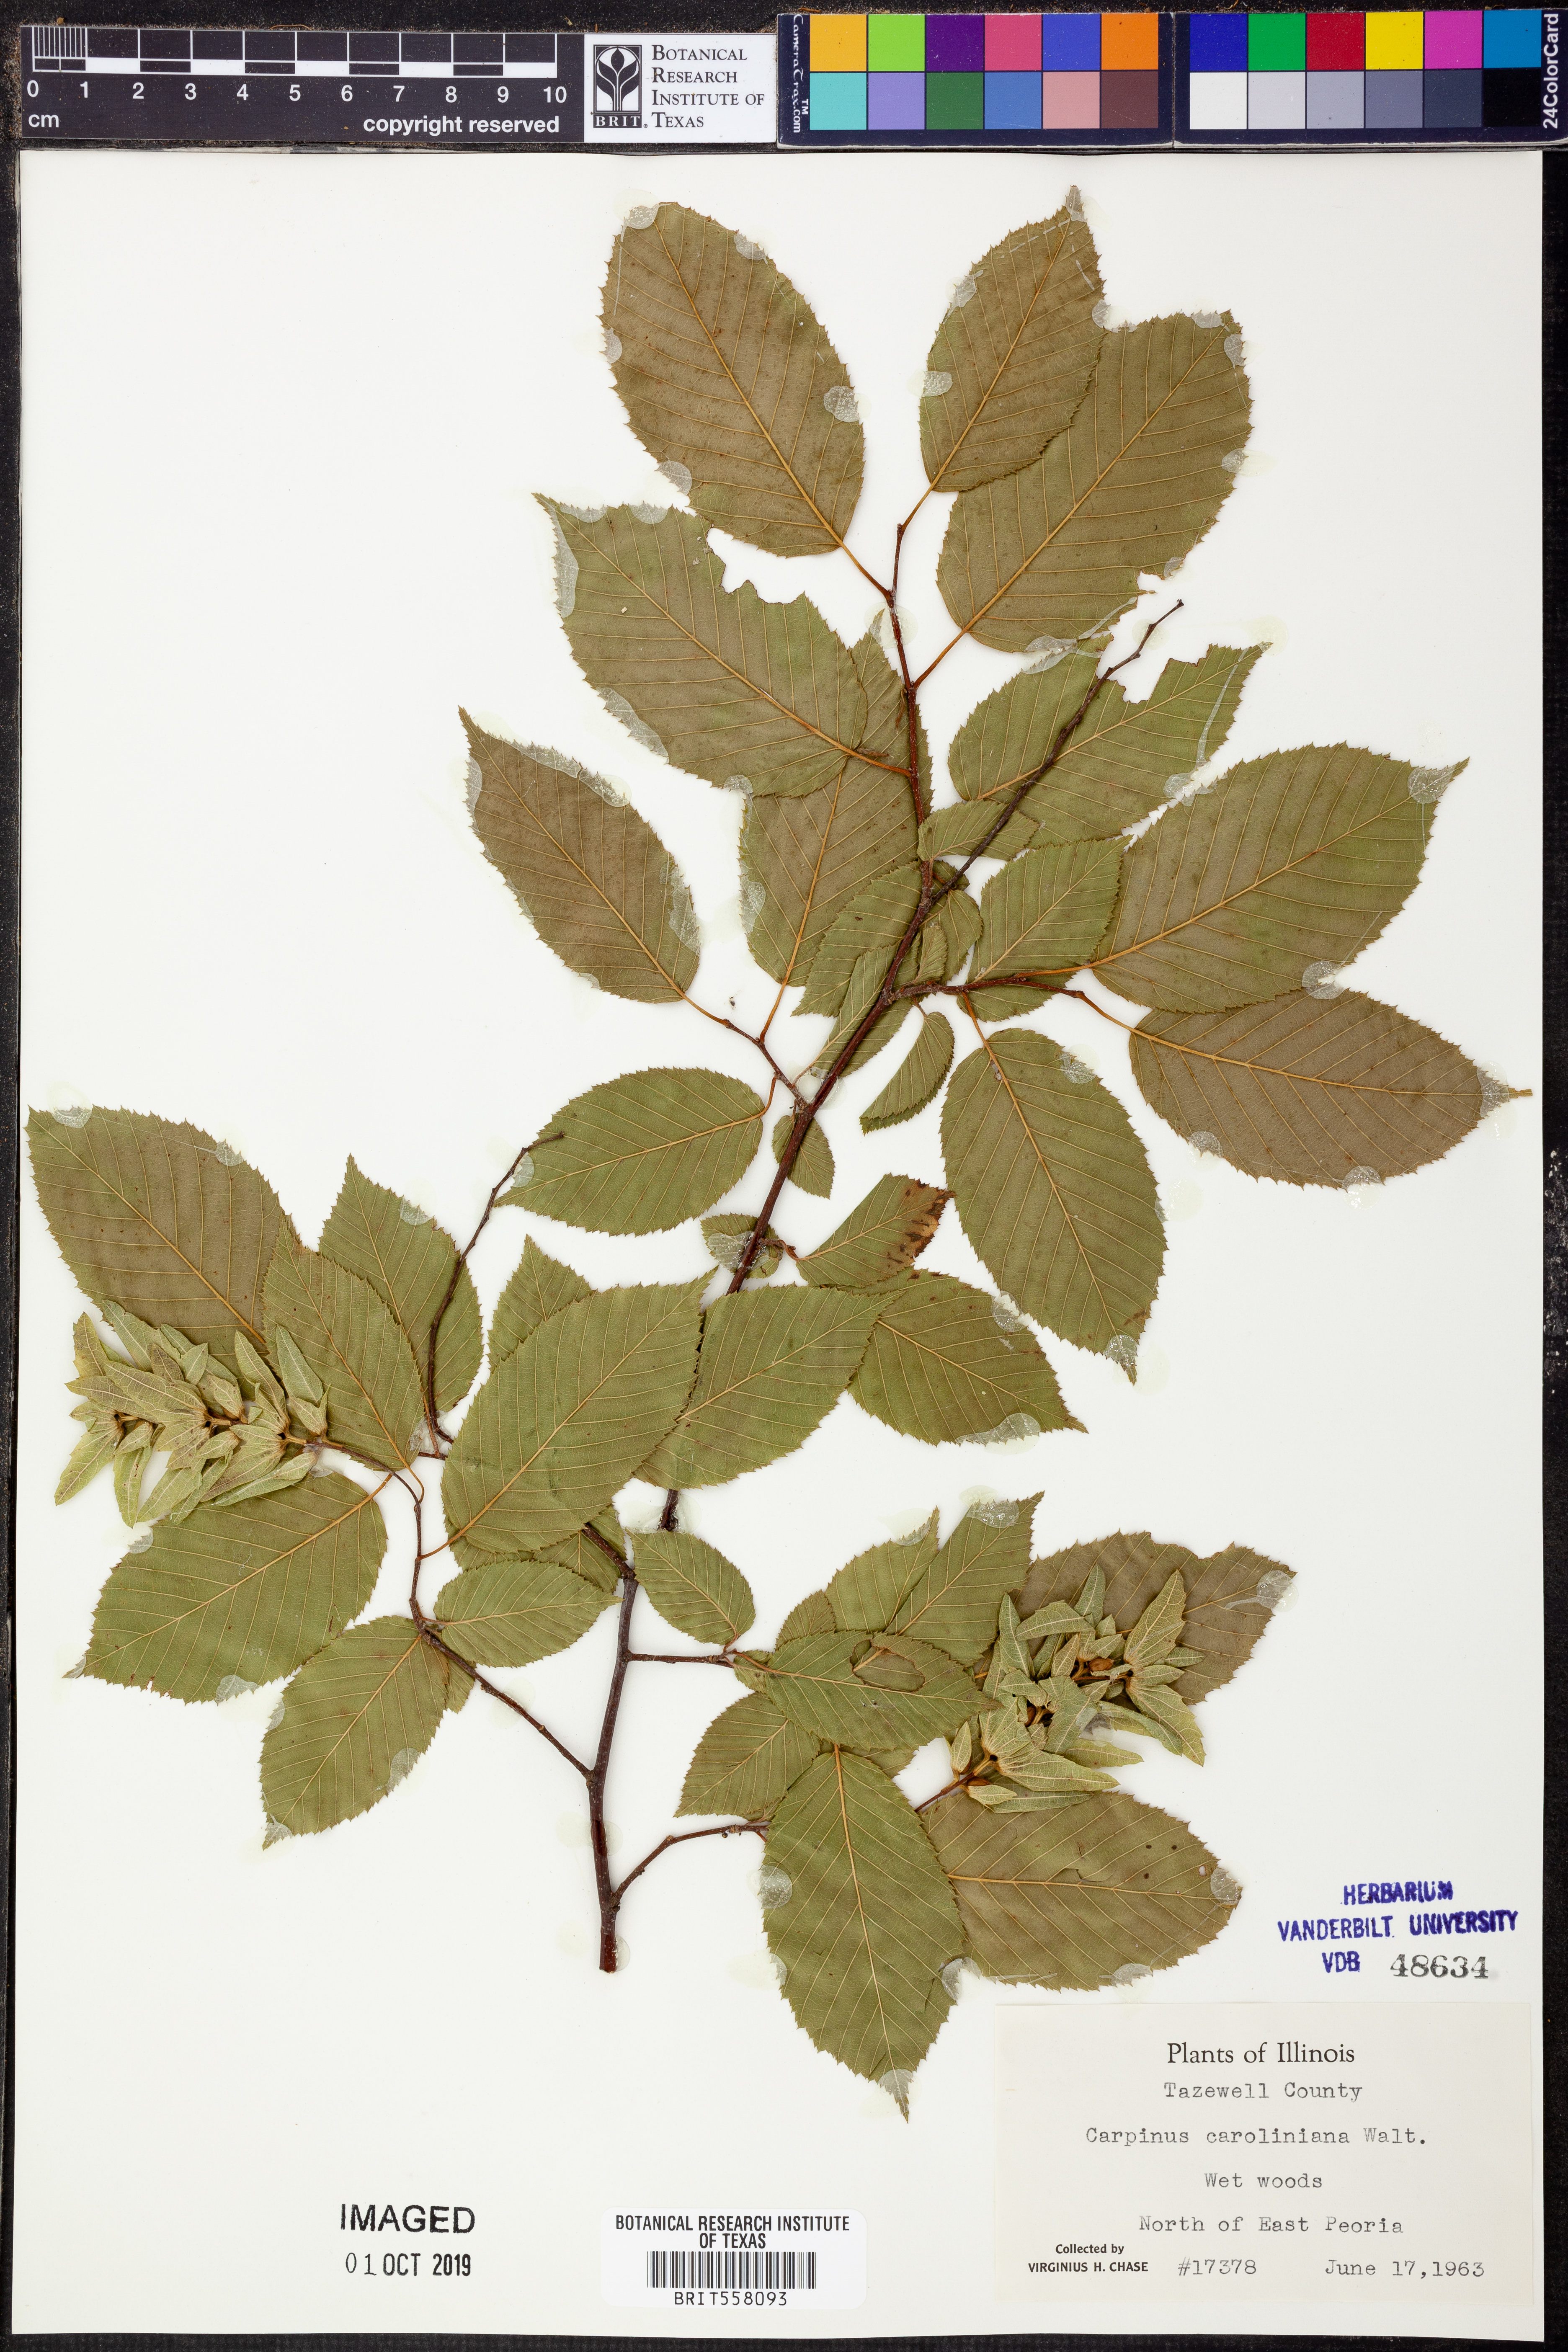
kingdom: Plantae
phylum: Tracheophyta
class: Magnoliopsida
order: Fagales
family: Betulaceae
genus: Carpinus
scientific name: Carpinus caroliniana
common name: American hornbeam
